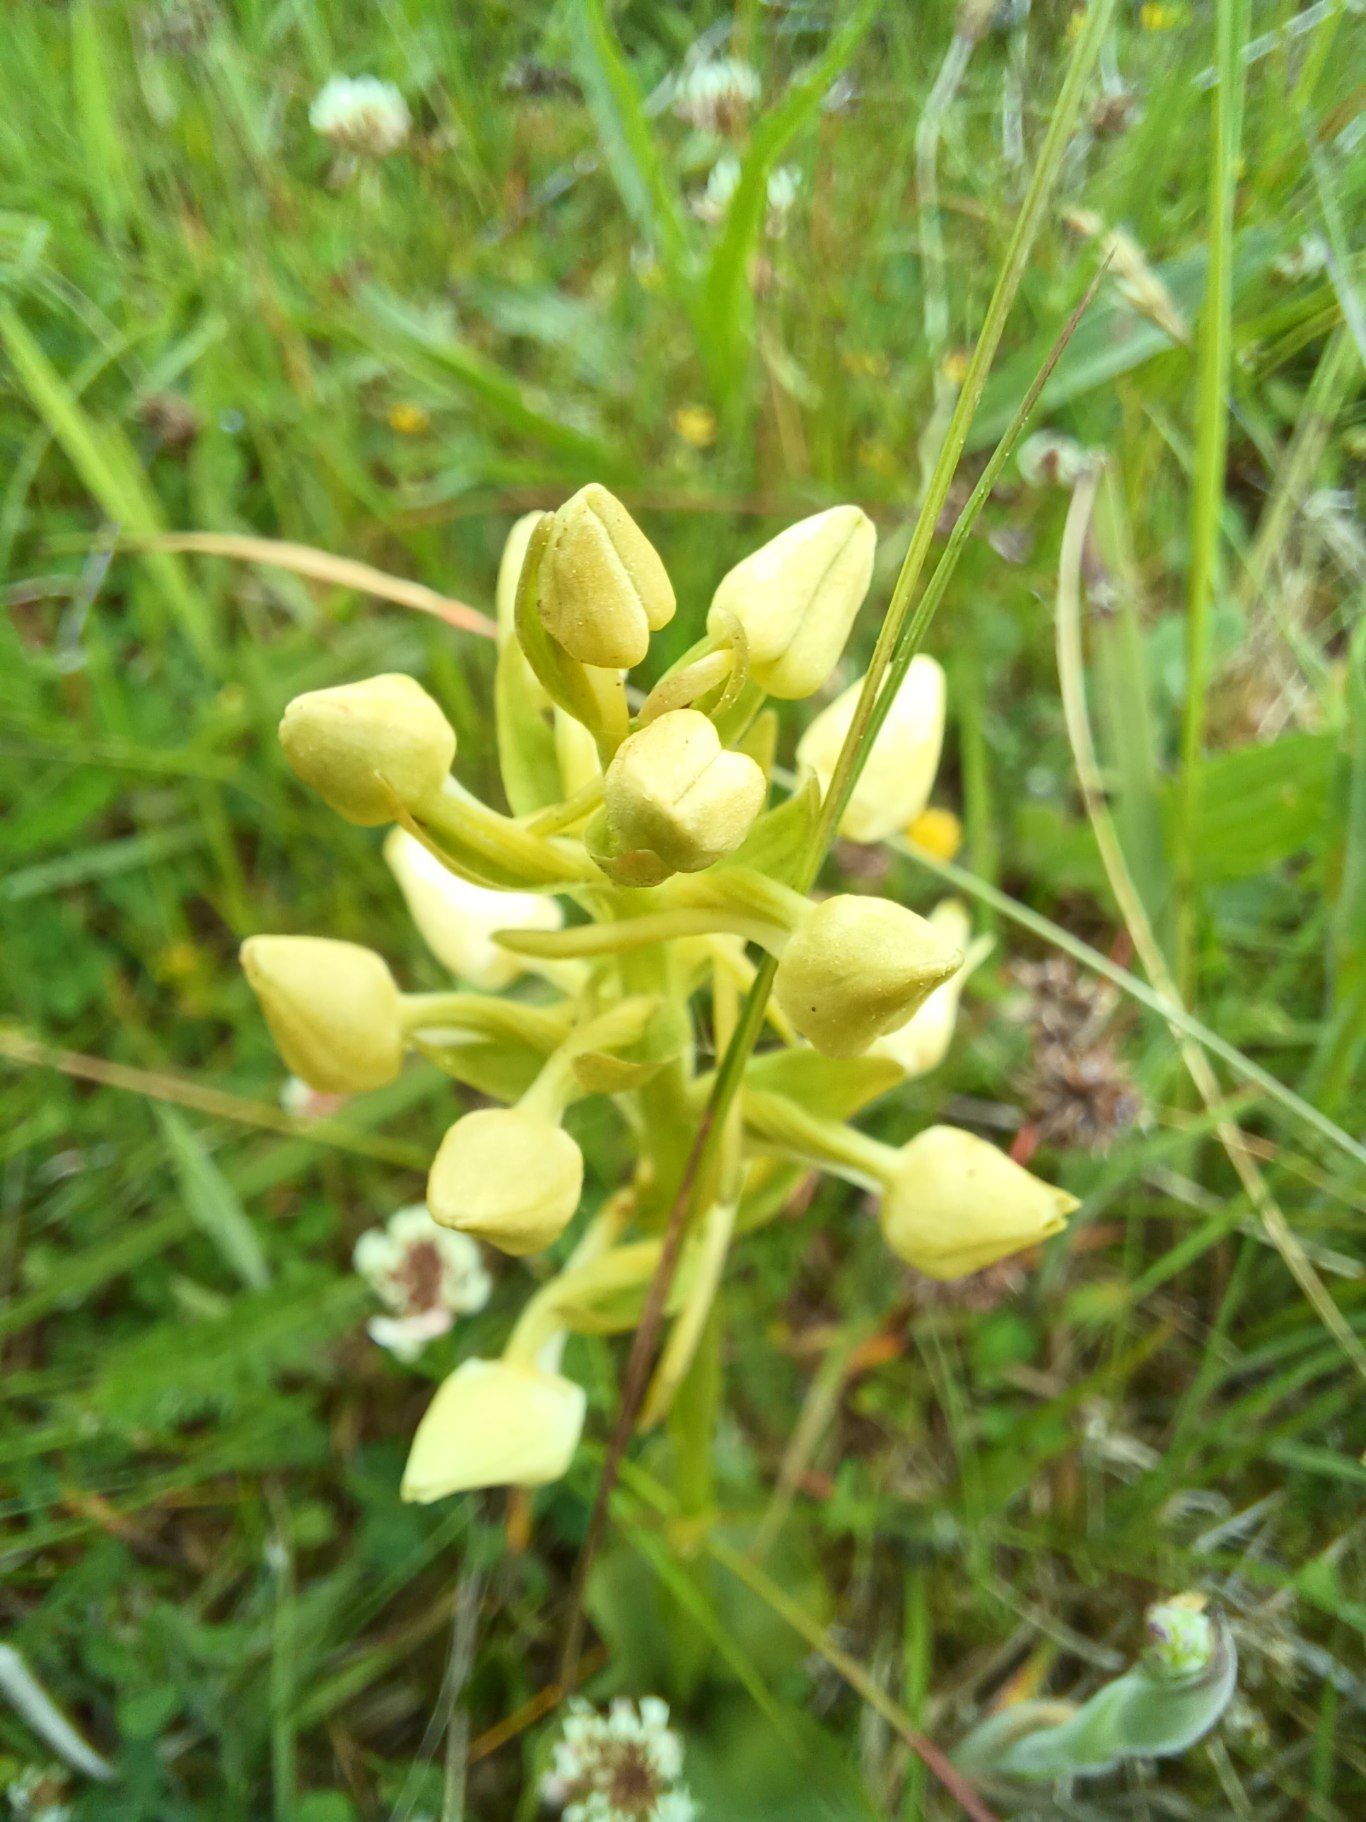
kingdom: Plantae
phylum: Tracheophyta
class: Liliopsida
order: Asparagales
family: Orchidaceae
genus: Platanthera
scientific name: Platanthera chlorantha
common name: Skov-gøgelilje
